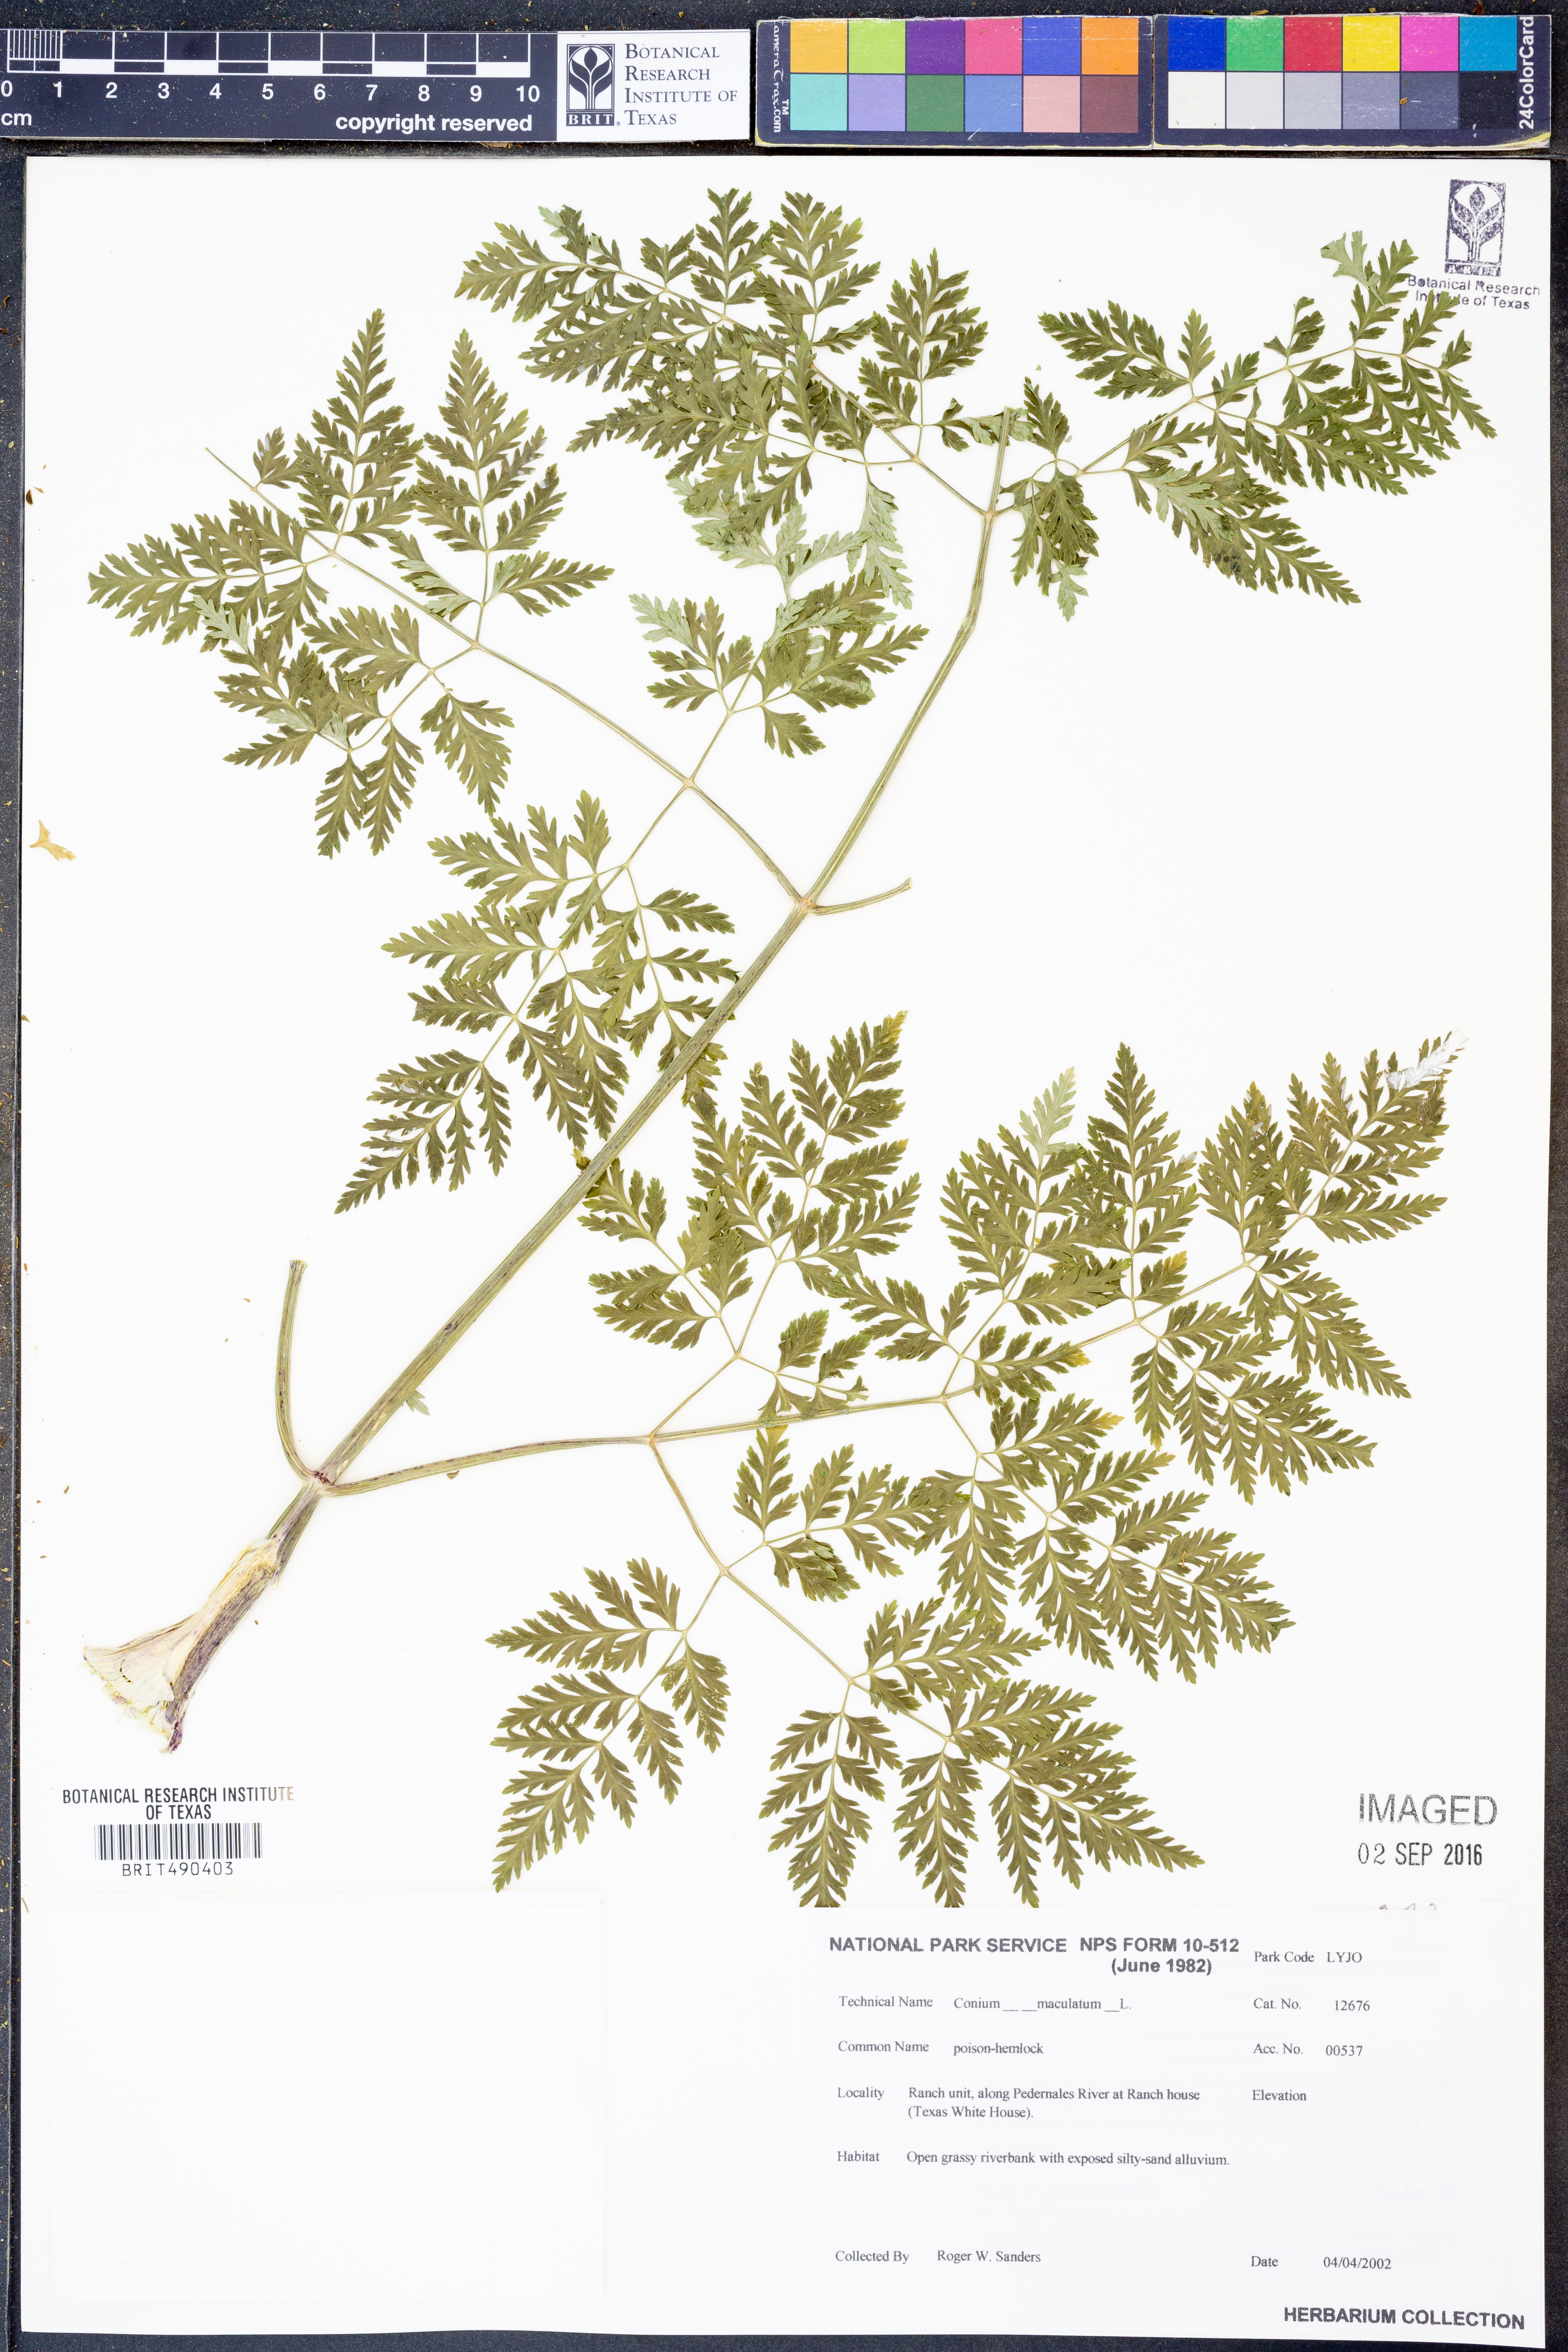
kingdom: Plantae
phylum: Tracheophyta
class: Magnoliopsida
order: Apiales
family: Apiaceae
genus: Conium
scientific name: Conium maculatum
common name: Hemlock
